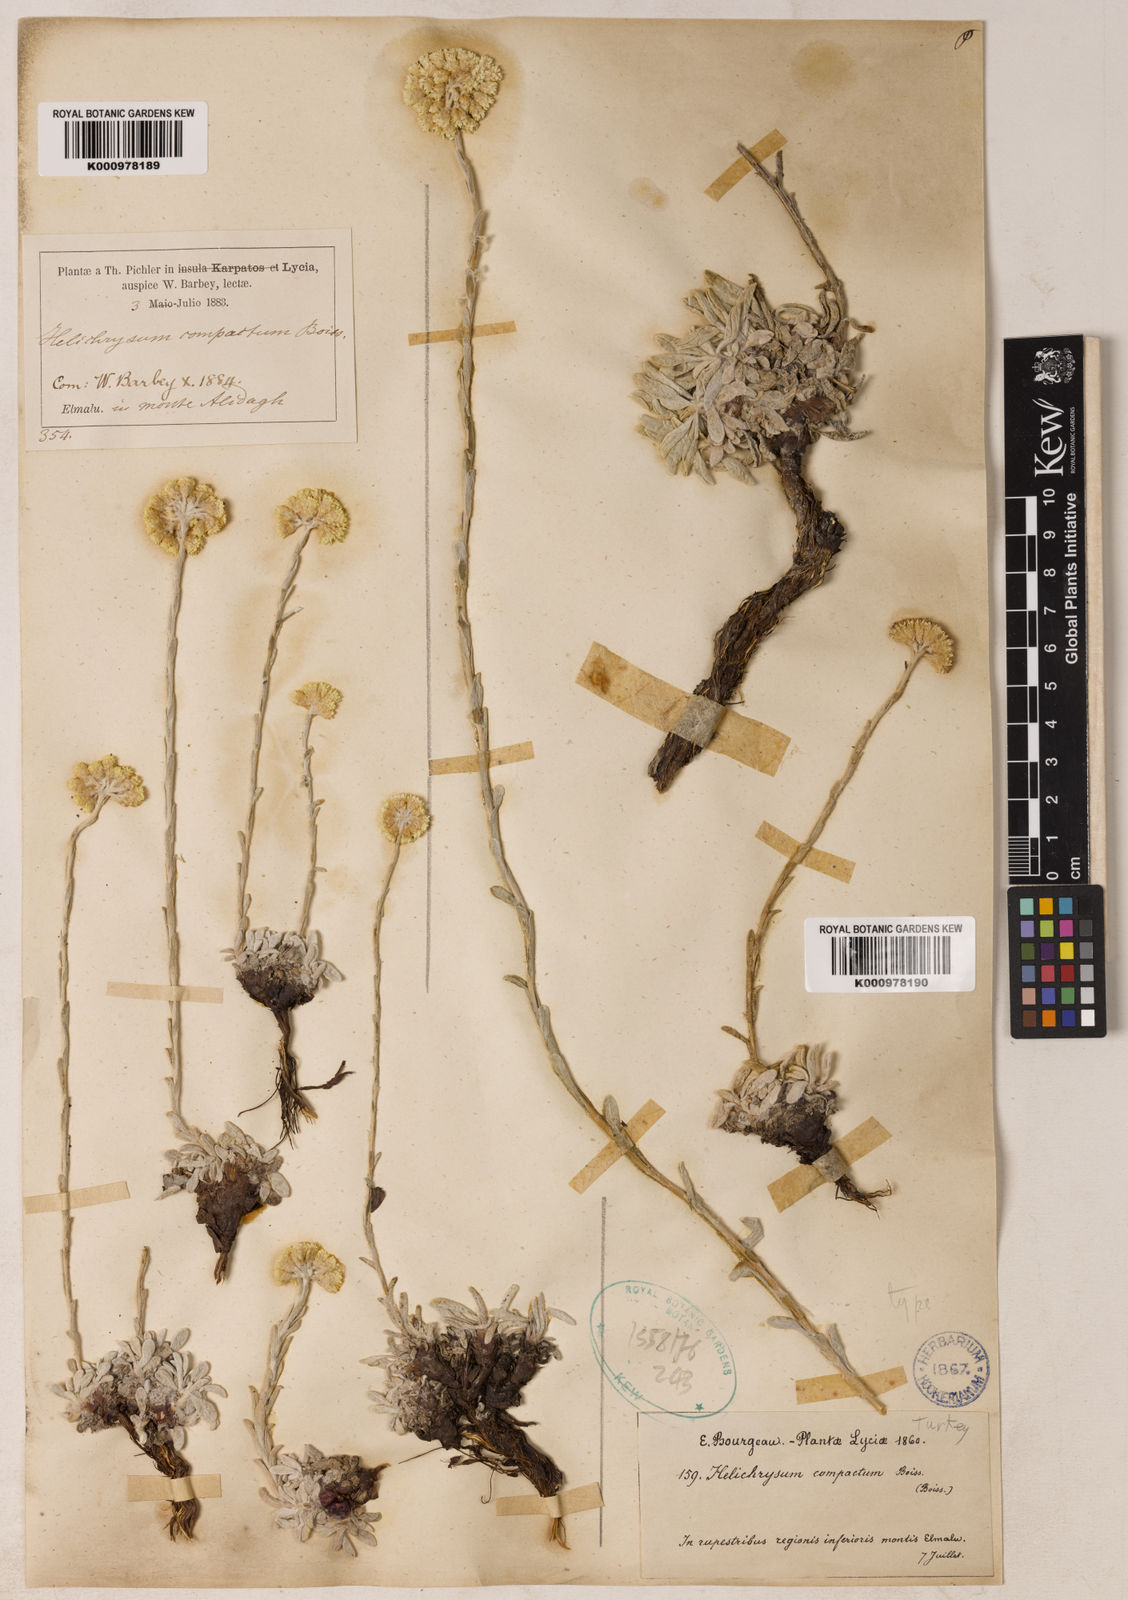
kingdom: Plantae
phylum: Tracheophyta
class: Magnoliopsida
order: Asterales
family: Asteraceae
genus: Helichrysum
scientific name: Helichrysum compactum
